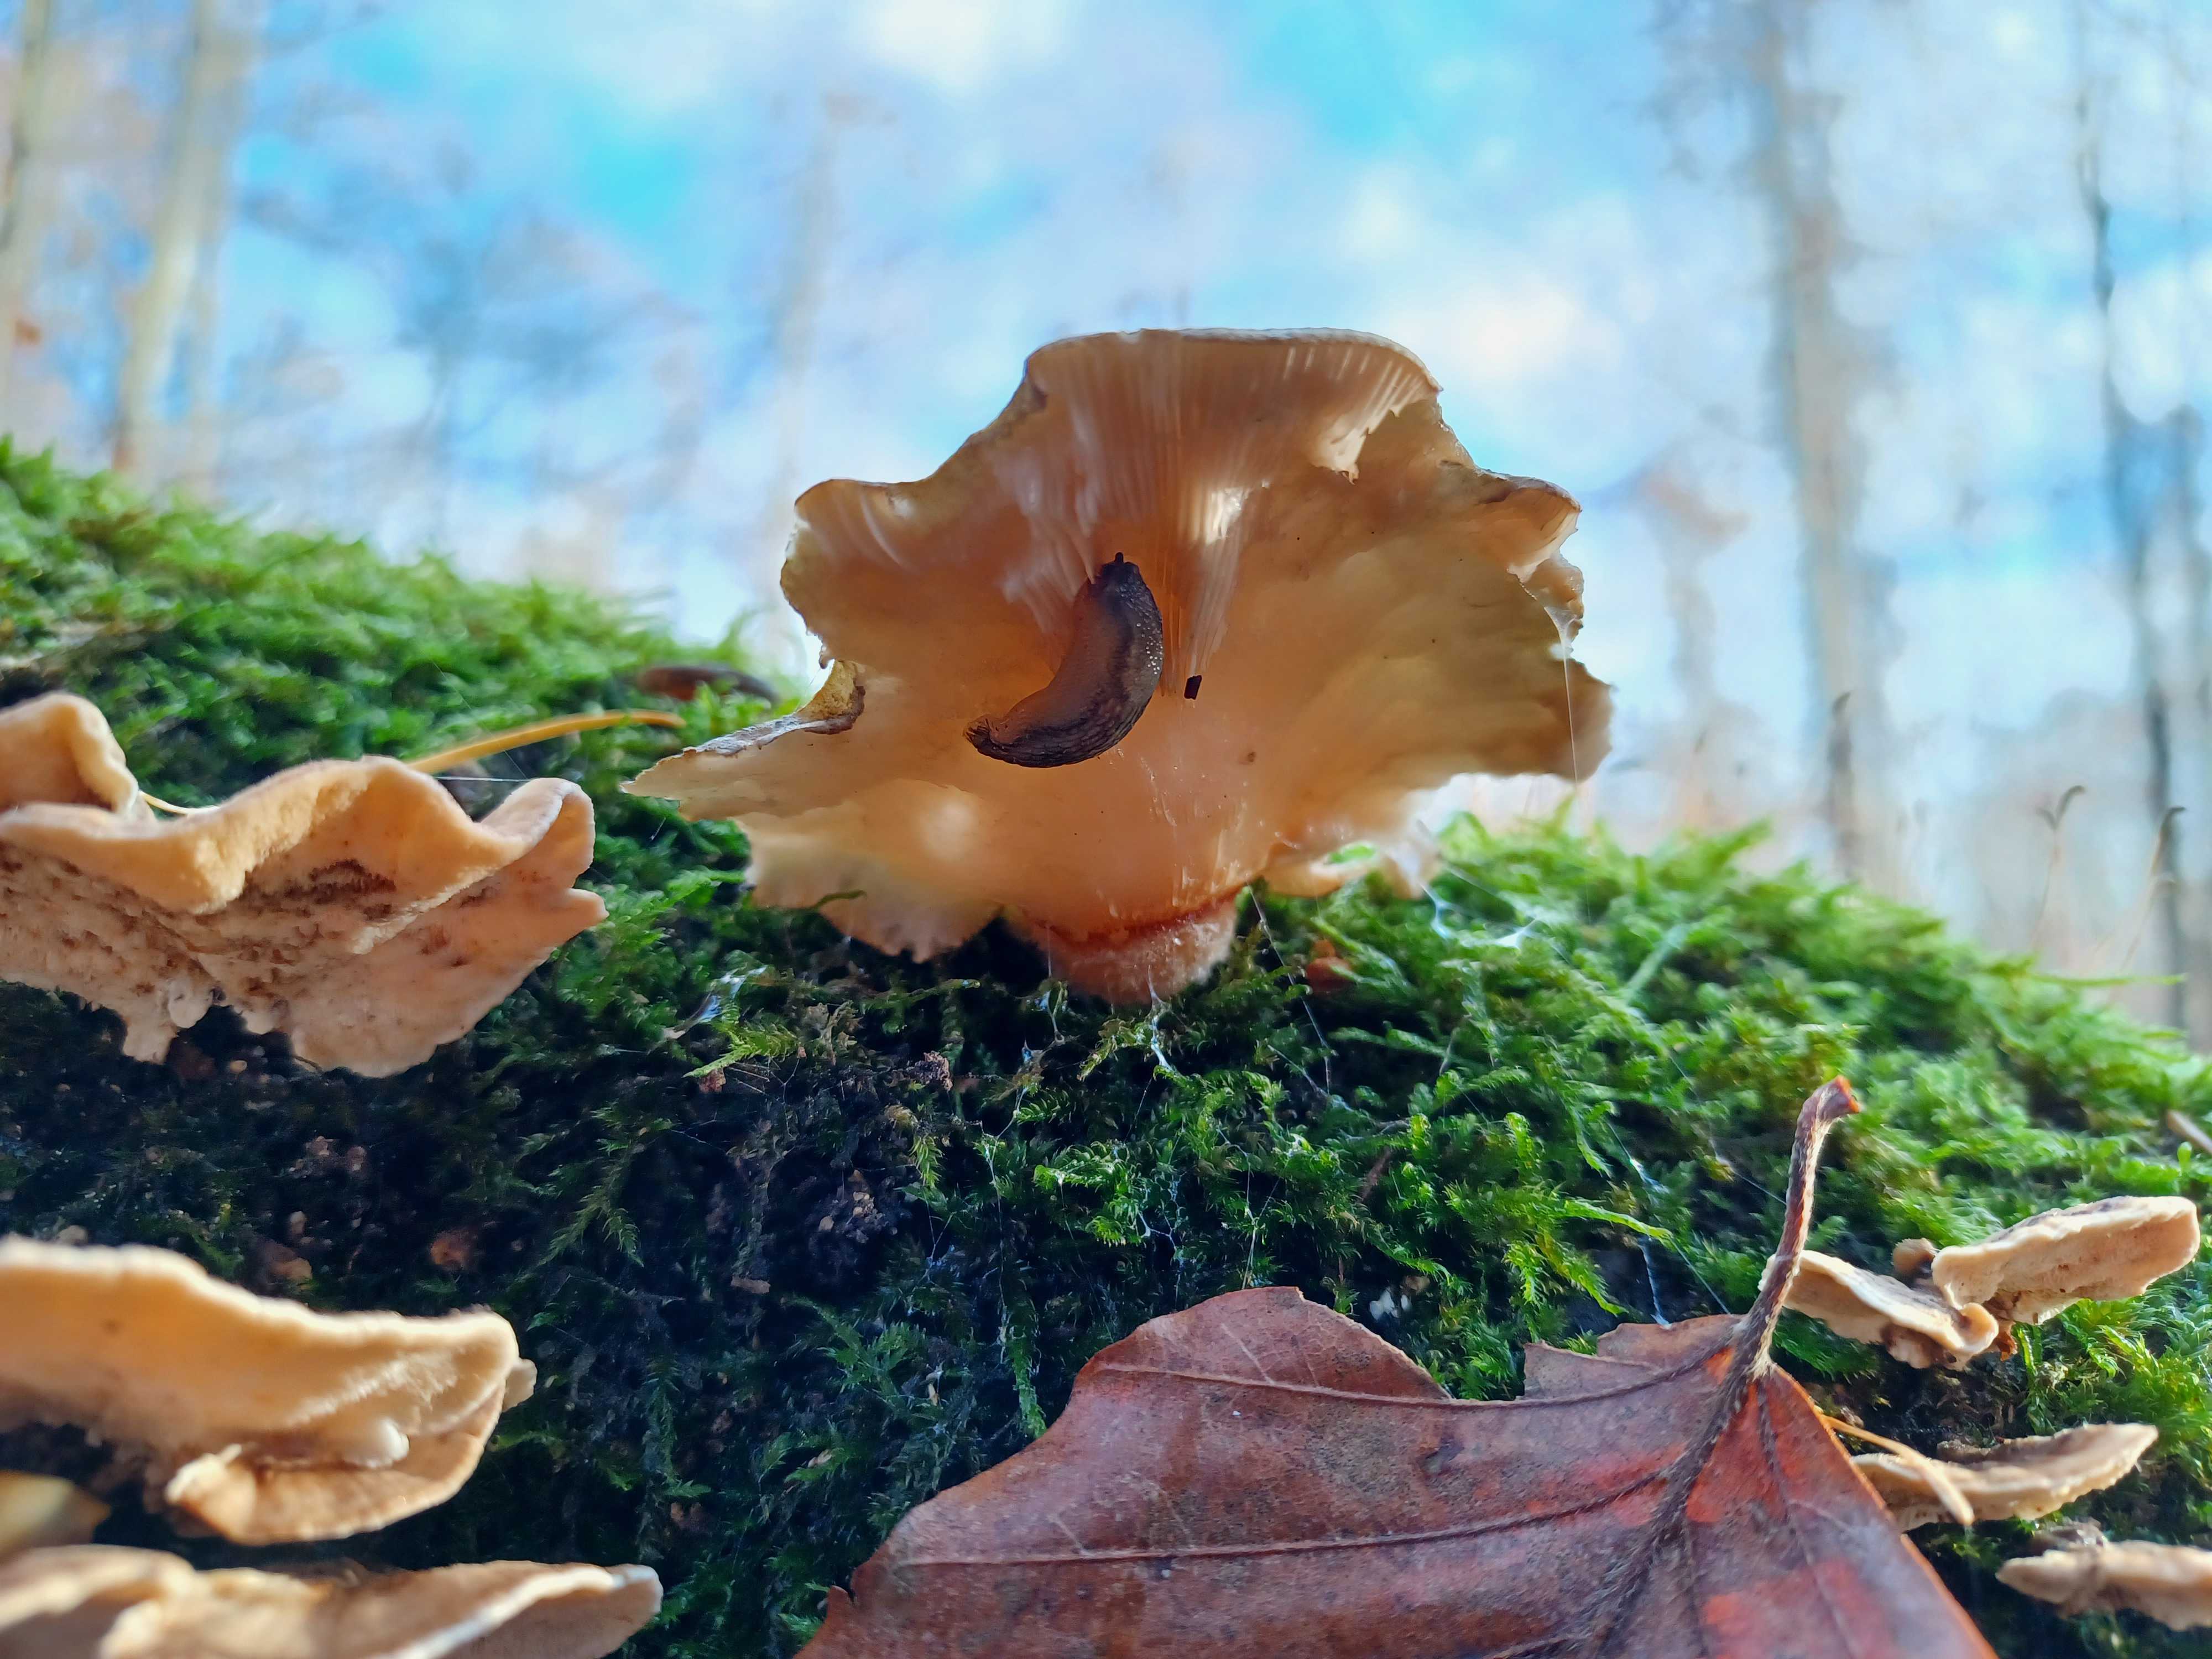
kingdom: Fungi
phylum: Basidiomycota
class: Agaricomycetes
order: Agaricales
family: Sarcomyxaceae
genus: Sarcomyxa
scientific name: Sarcomyxa serotina
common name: gummihat
